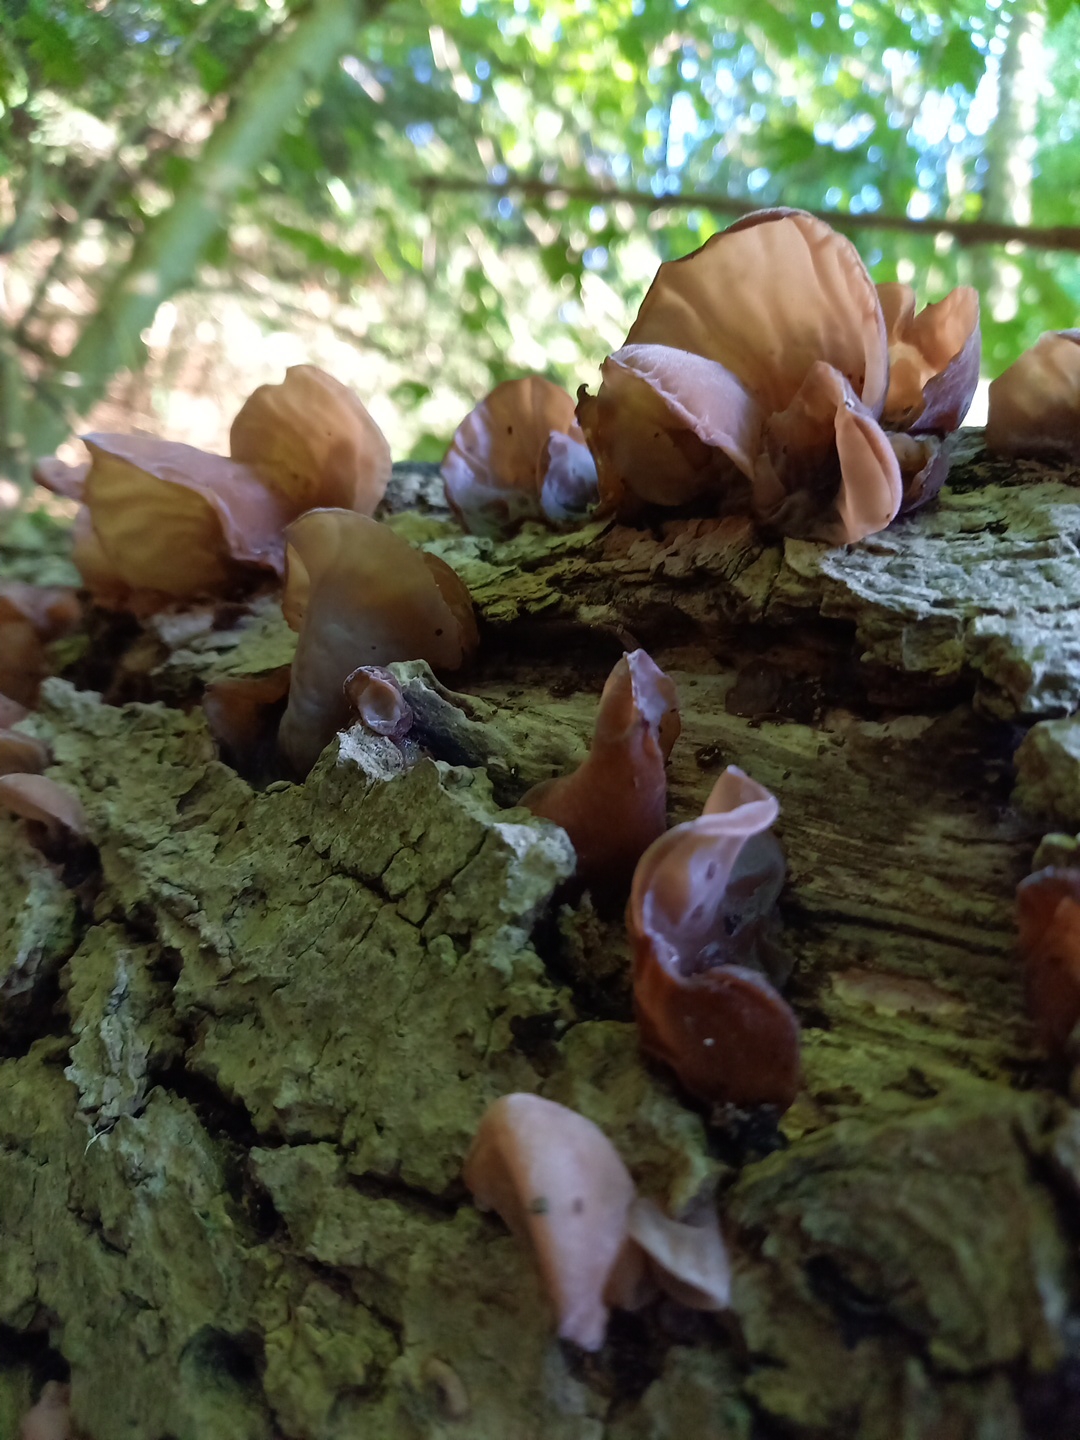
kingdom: Fungi
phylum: Basidiomycota
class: Agaricomycetes
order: Auriculariales
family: Auriculariaceae
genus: Auricularia
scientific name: Auricularia auricula-judae
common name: almindelig judasøre
